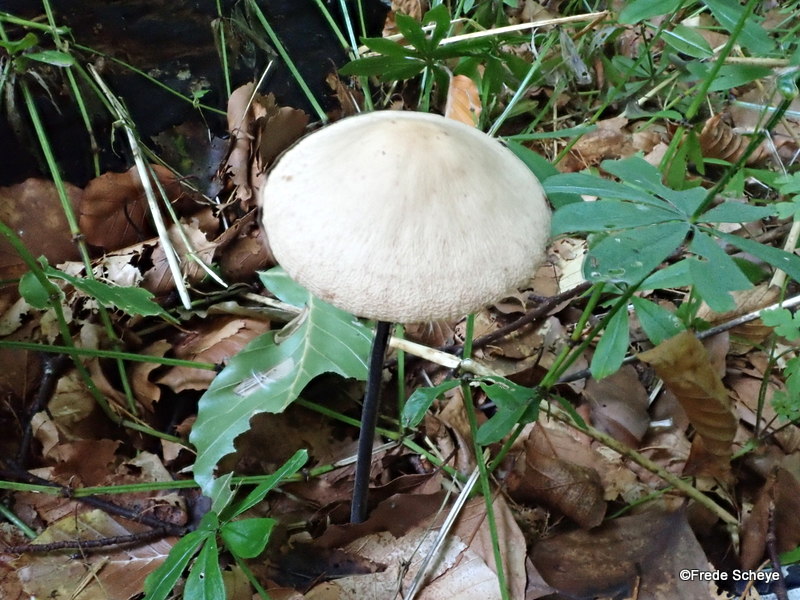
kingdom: Fungi
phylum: Basidiomycota
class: Agaricomycetes
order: Agaricales
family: Omphalotaceae
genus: Mycetinis
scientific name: Mycetinis alliaceus
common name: stor løghat
